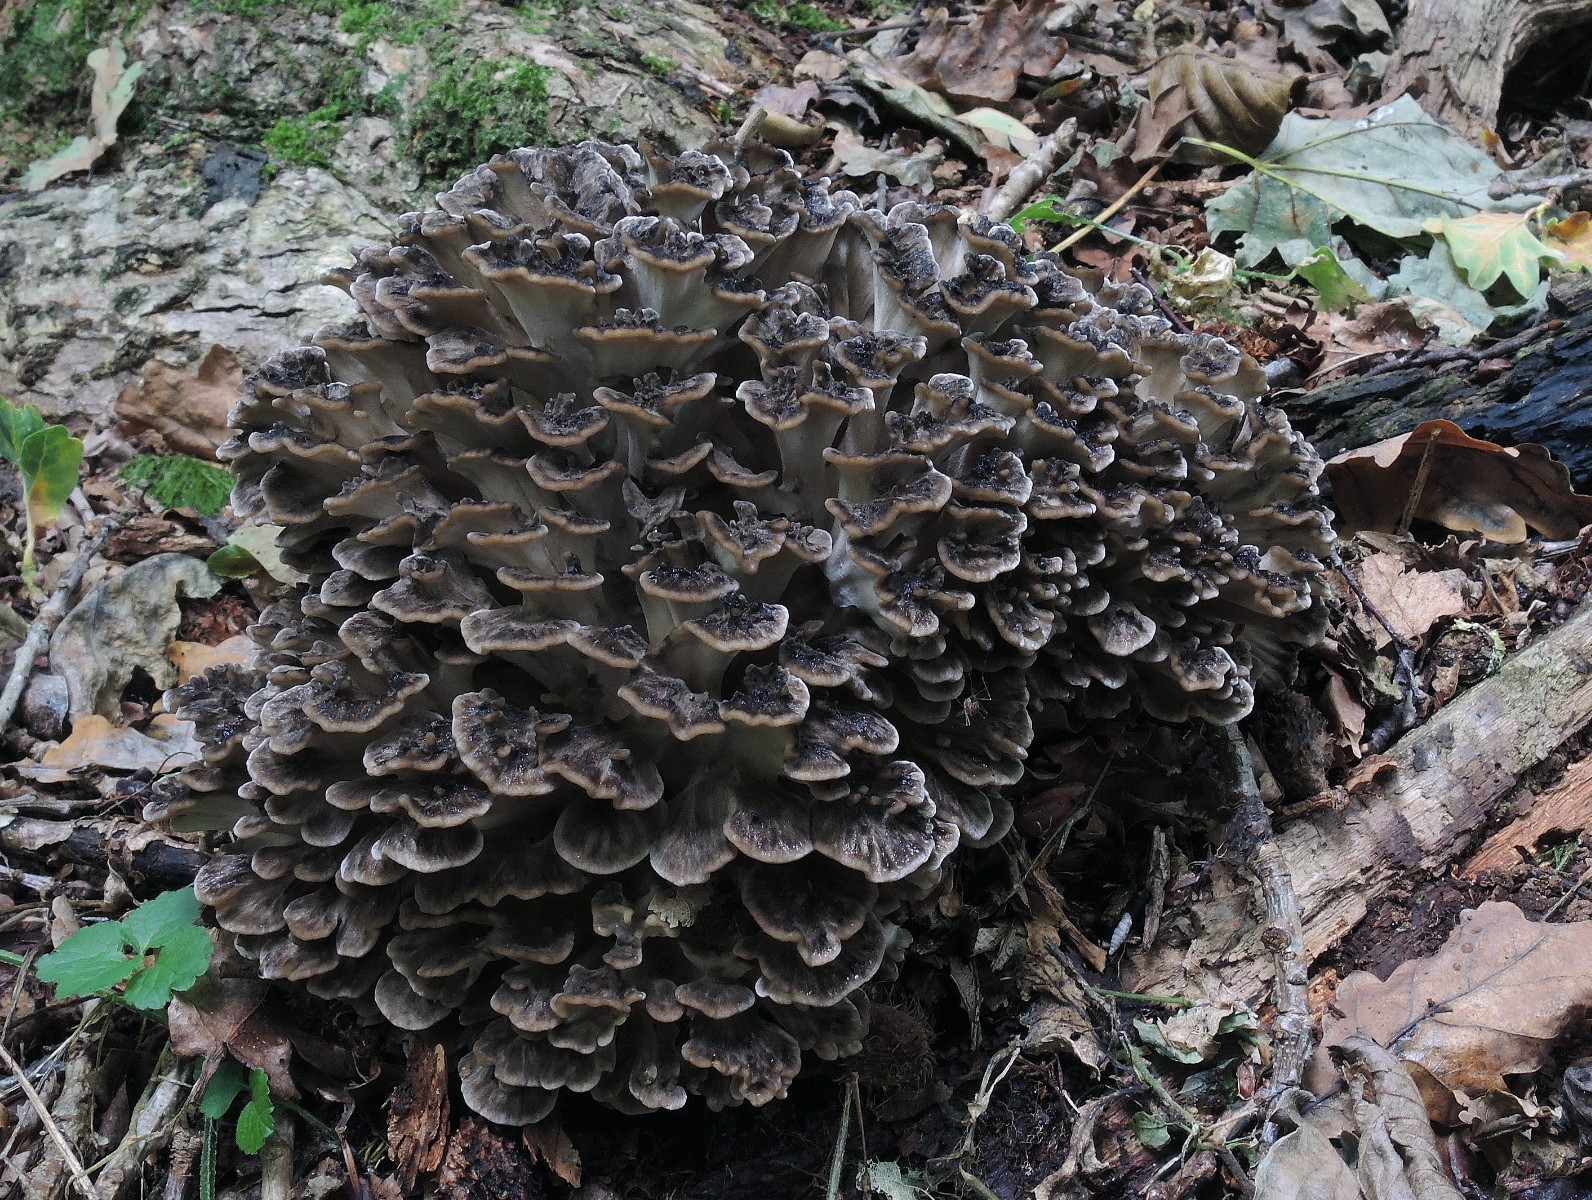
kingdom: Fungi
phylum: Basidiomycota
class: Agaricomycetes
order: Polyporales
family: Grifolaceae
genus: Grifola
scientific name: Grifola frondosa
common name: tueporesvamp
